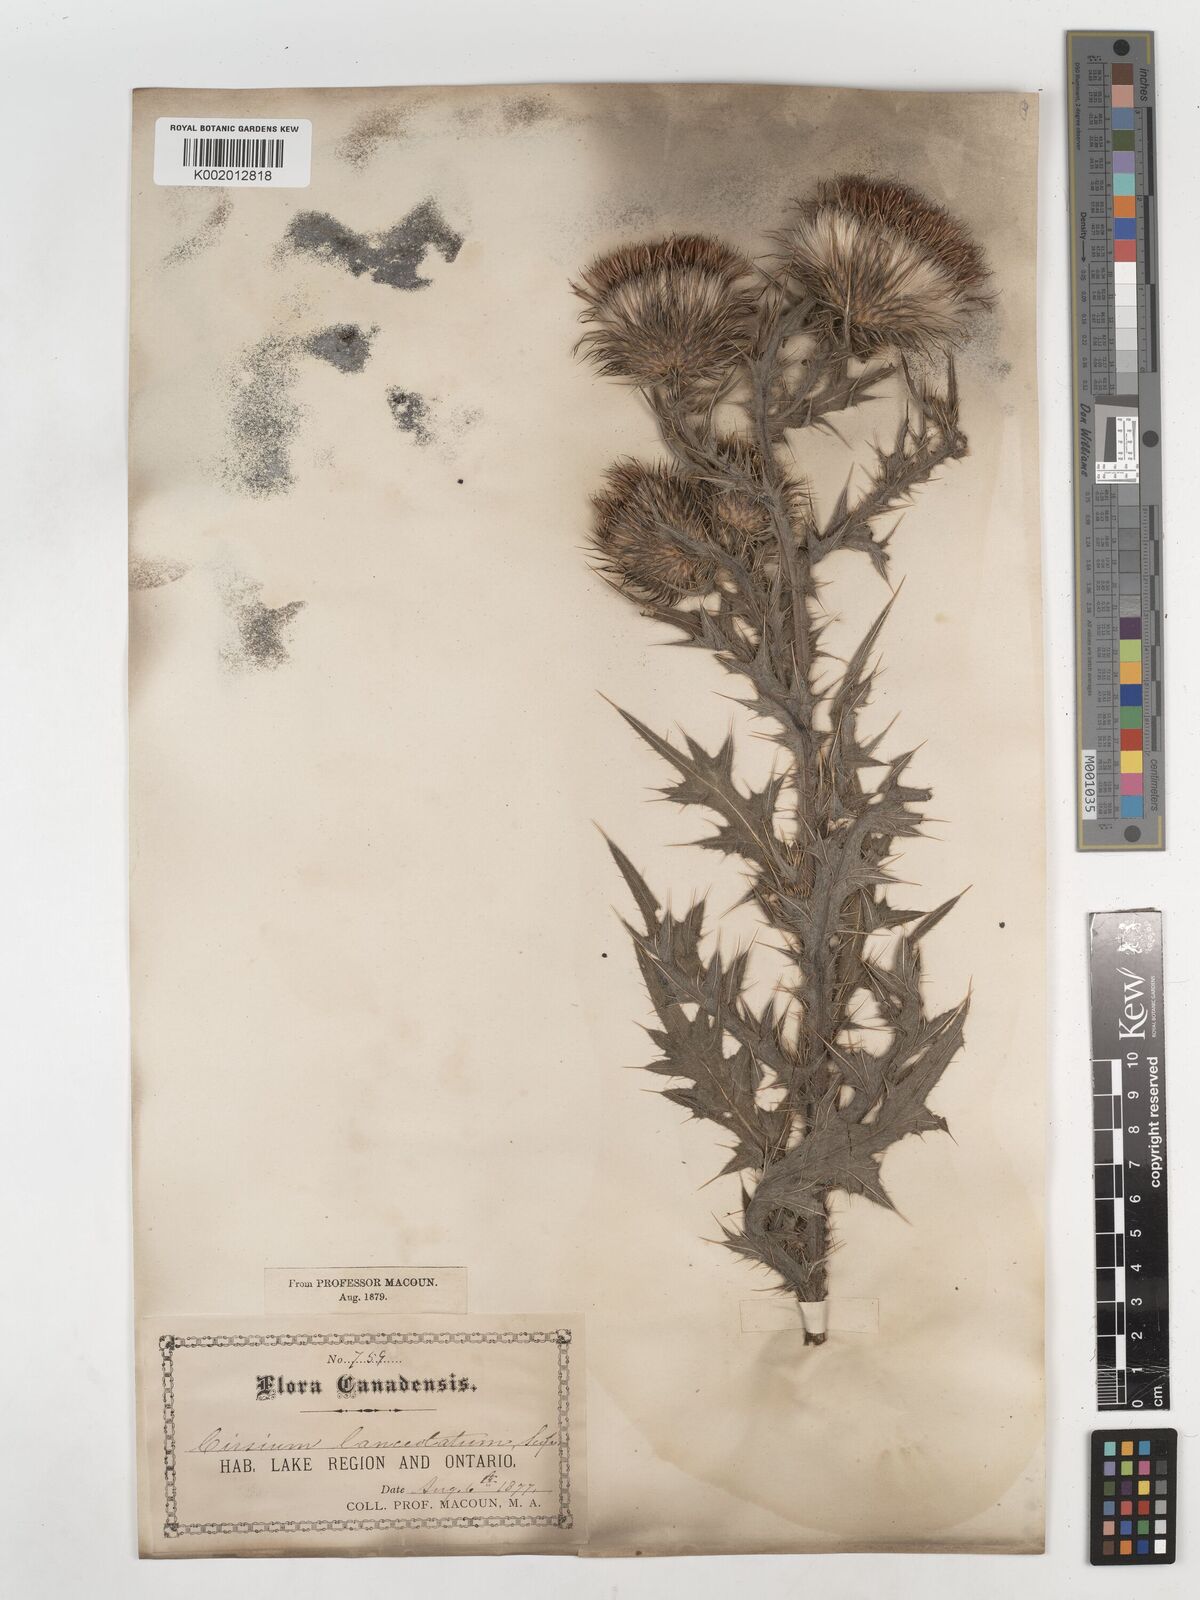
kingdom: Plantae
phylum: Tracheophyta
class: Magnoliopsida
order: Asterales
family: Asteraceae
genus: Cirsium
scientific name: Cirsium vulgare
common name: Bull thistle
